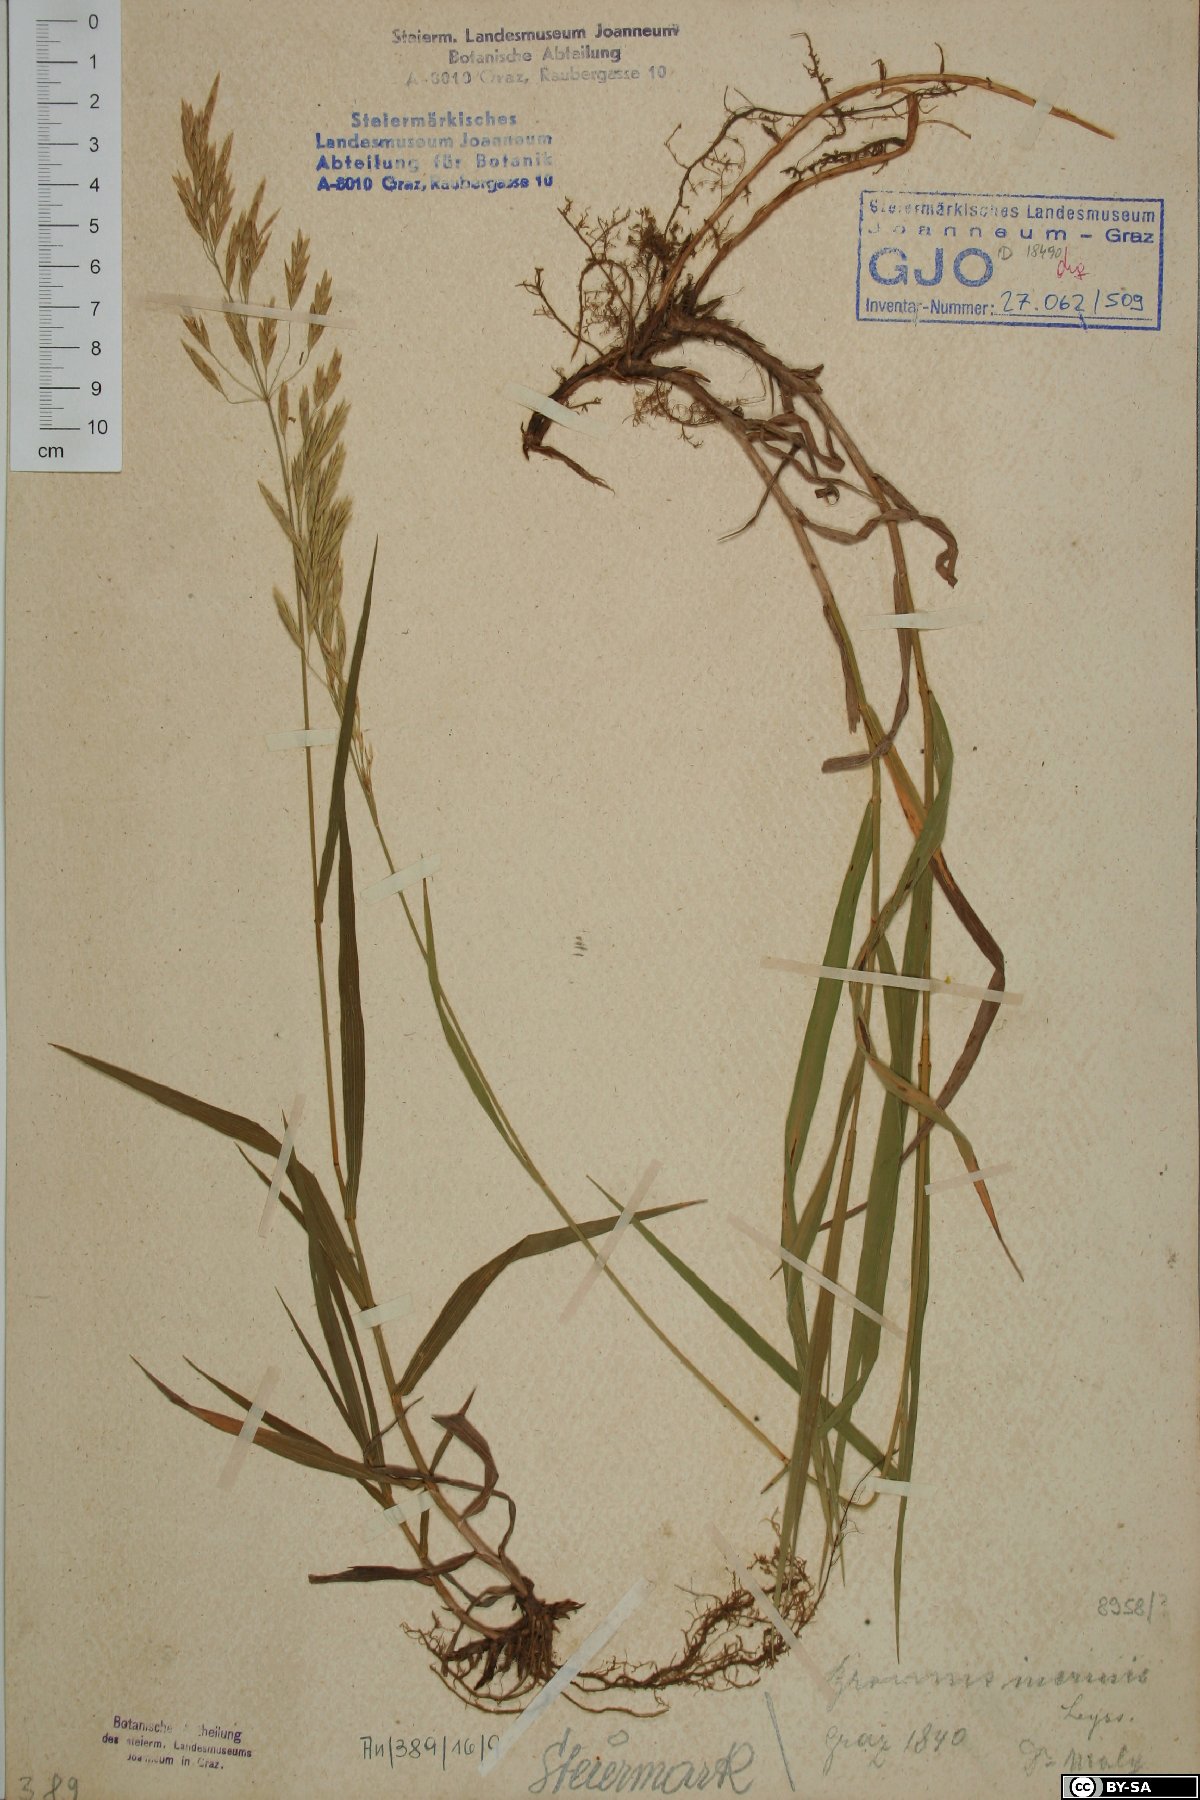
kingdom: Plantae
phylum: Tracheophyta
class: Liliopsida
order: Poales
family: Poaceae
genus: Bromus
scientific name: Bromus inermis
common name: Smooth brome
